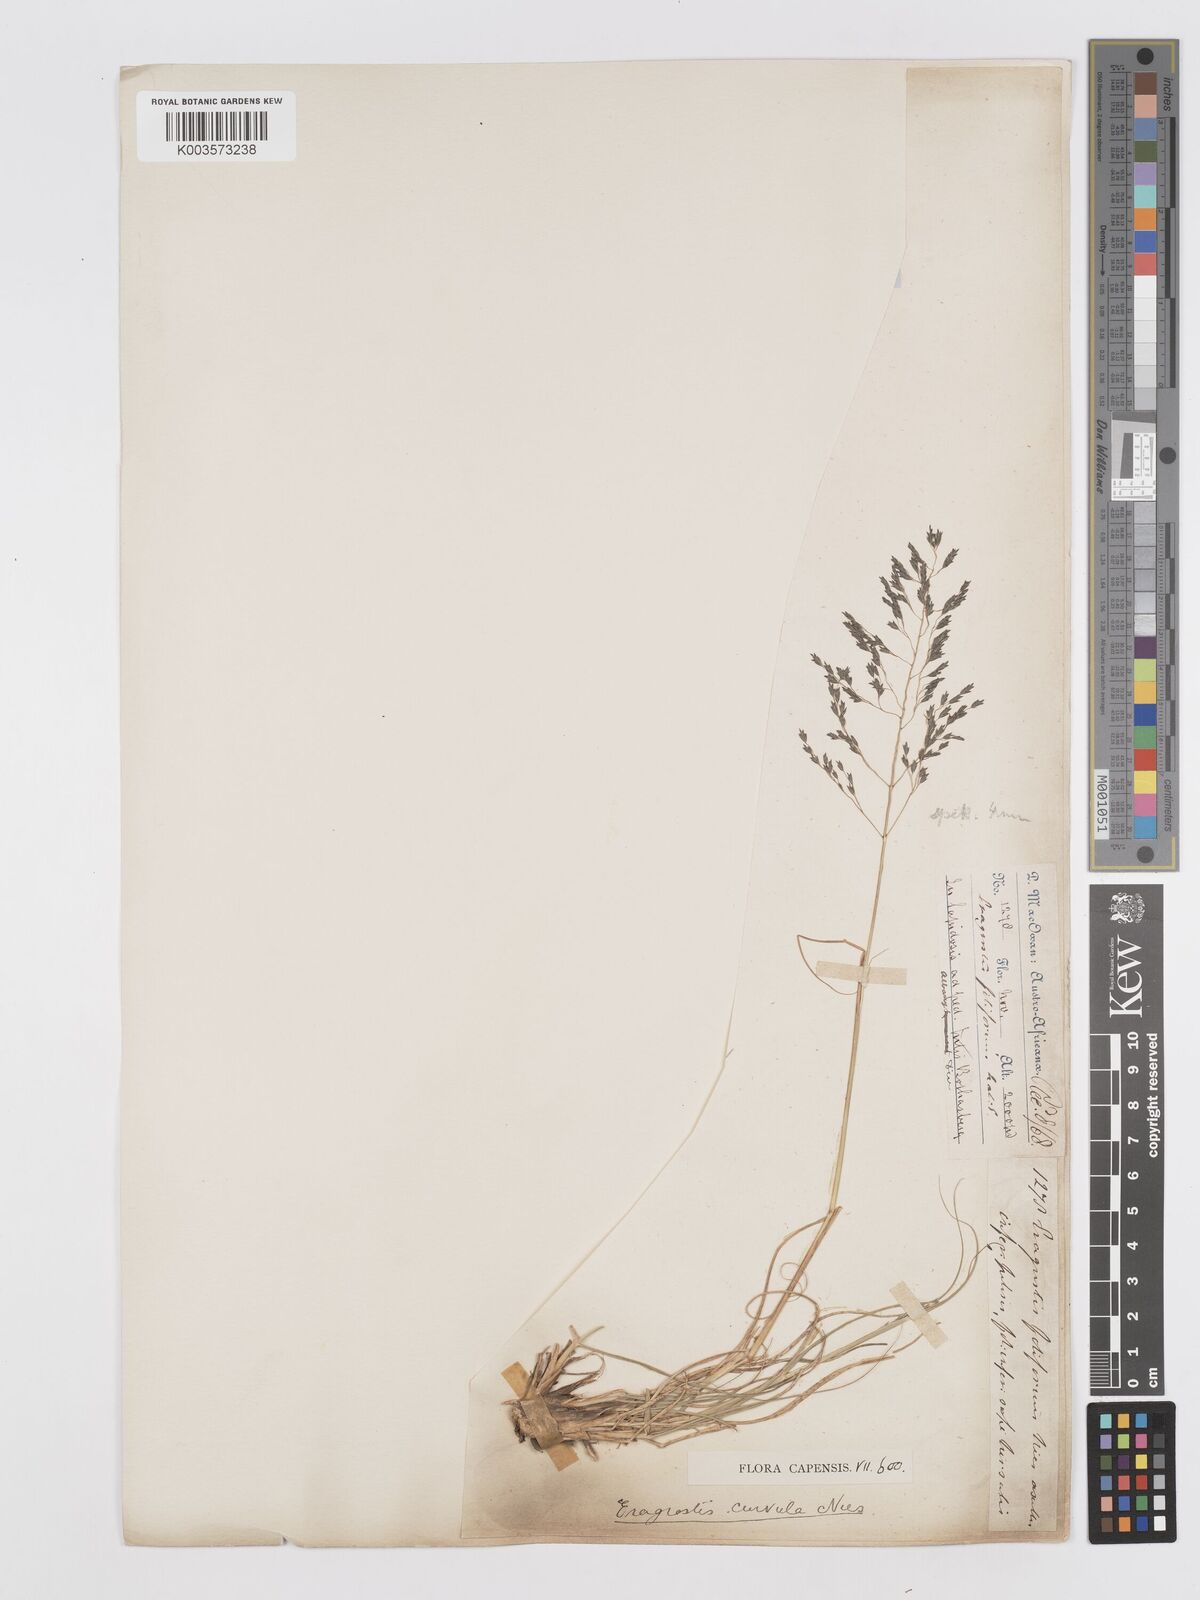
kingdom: Plantae
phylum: Tracheophyta
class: Liliopsida
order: Poales
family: Poaceae
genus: Eragrostis
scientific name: Eragrostis curvula
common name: African love-grass
